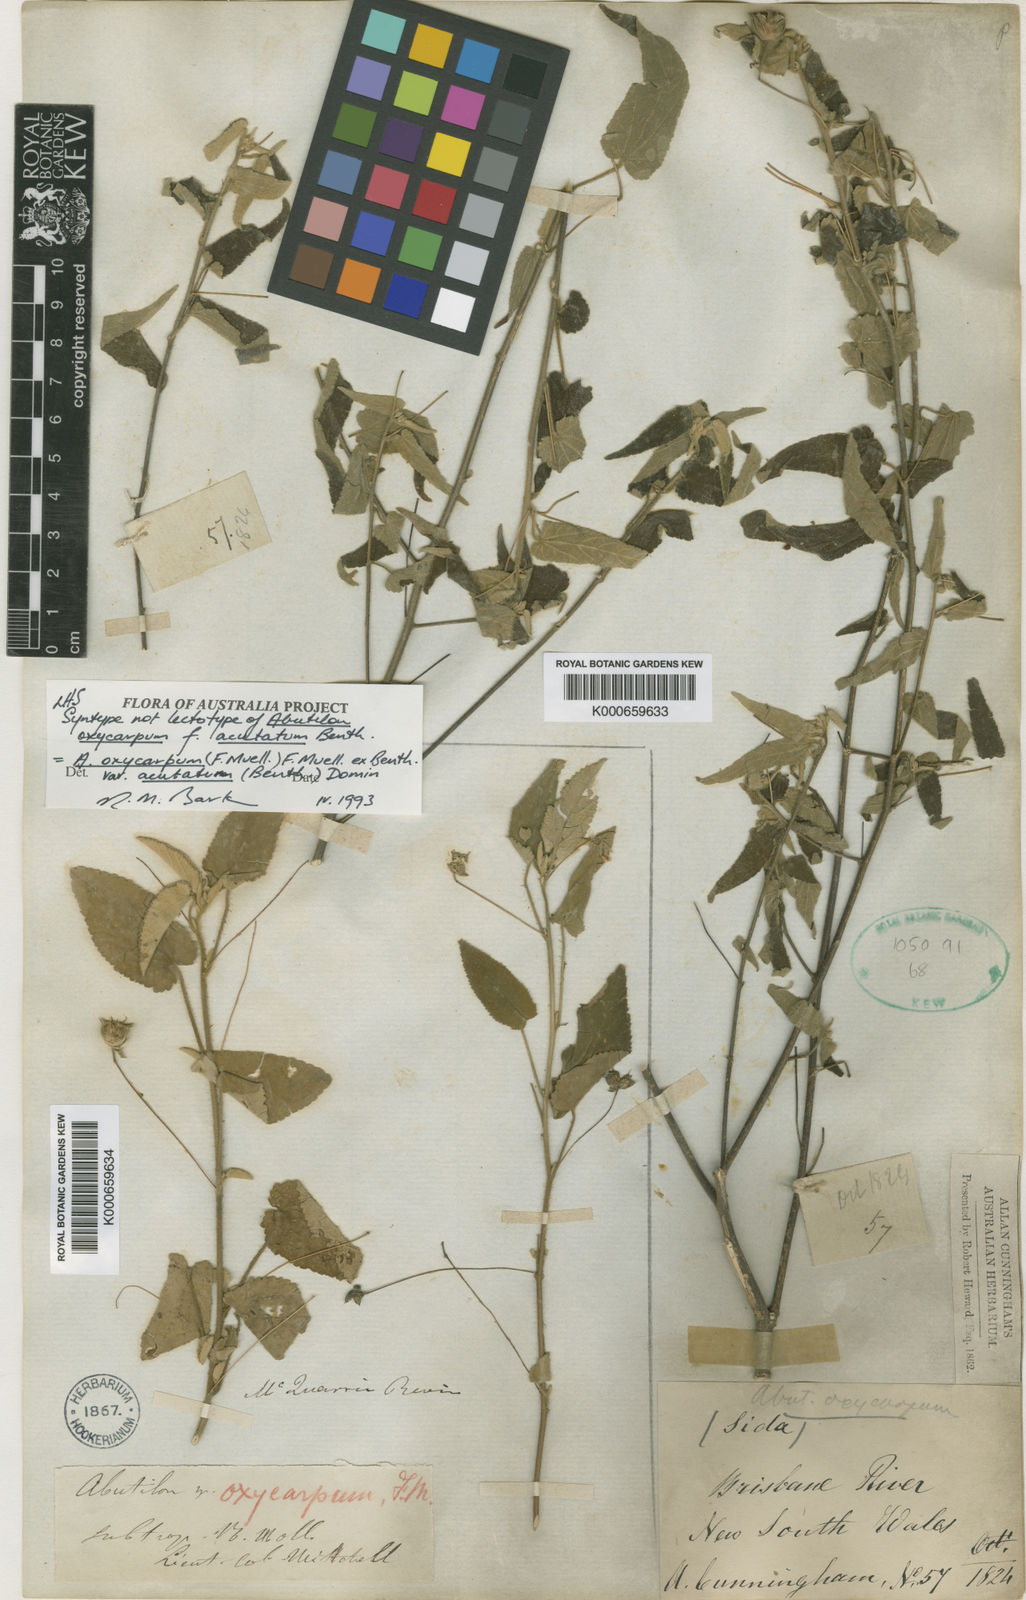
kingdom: Plantae
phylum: Tracheophyta
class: Magnoliopsida
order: Malvales
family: Malvaceae
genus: Abutilon
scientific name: Abutilon oxycarpum
